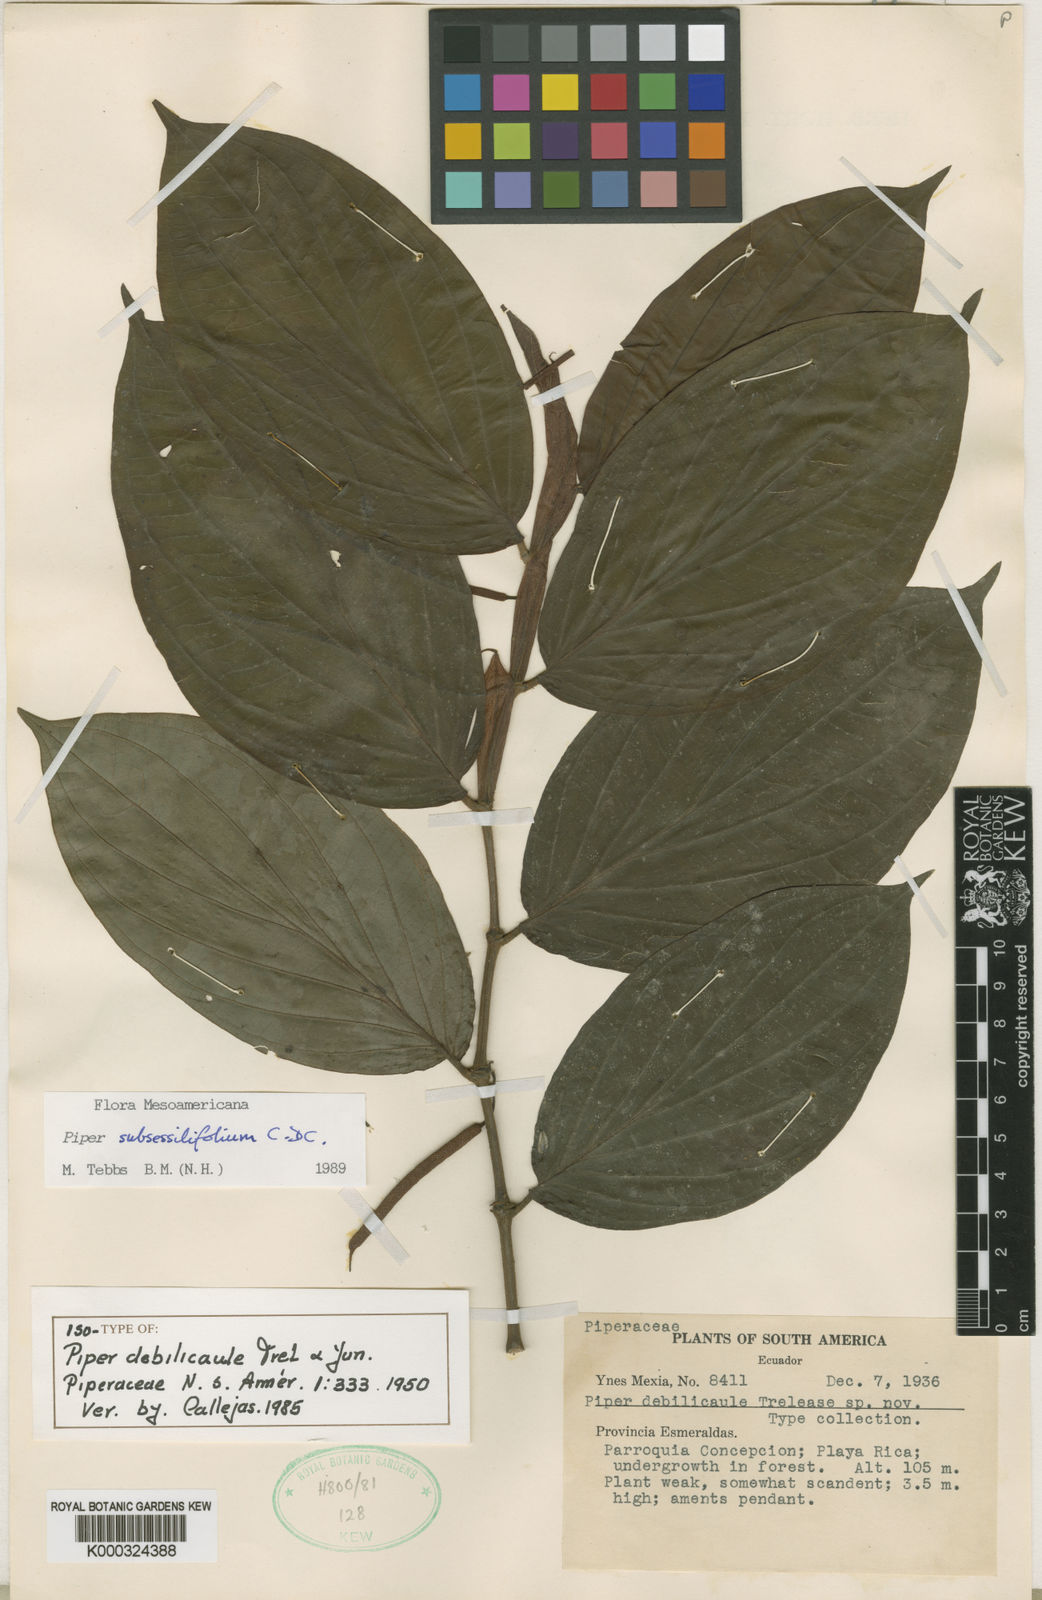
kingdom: Plantae
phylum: Tracheophyta
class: Magnoliopsida
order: Piperales
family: Piperaceae
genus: Piper
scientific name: Piper subsessilifolium
